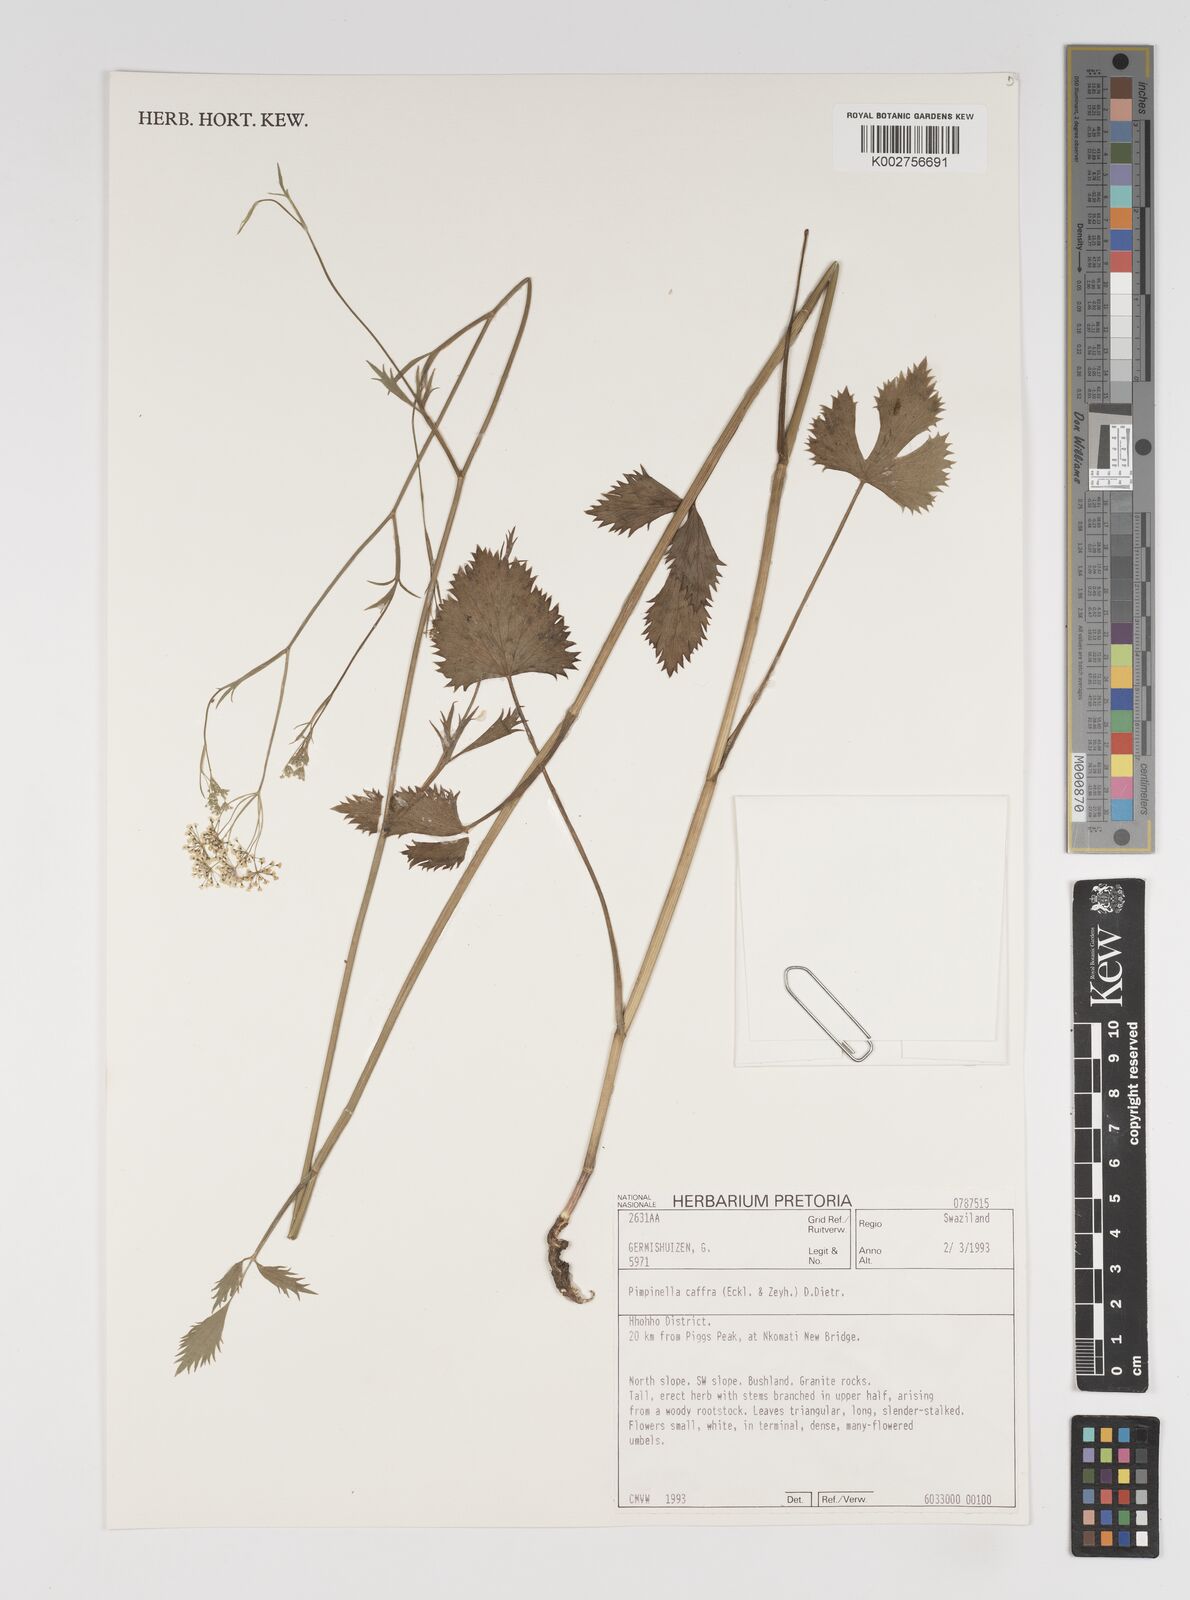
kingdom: Plantae
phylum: Tracheophyta
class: Magnoliopsida
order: Apiales
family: Apiaceae
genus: Pimpinella
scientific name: Pimpinella
